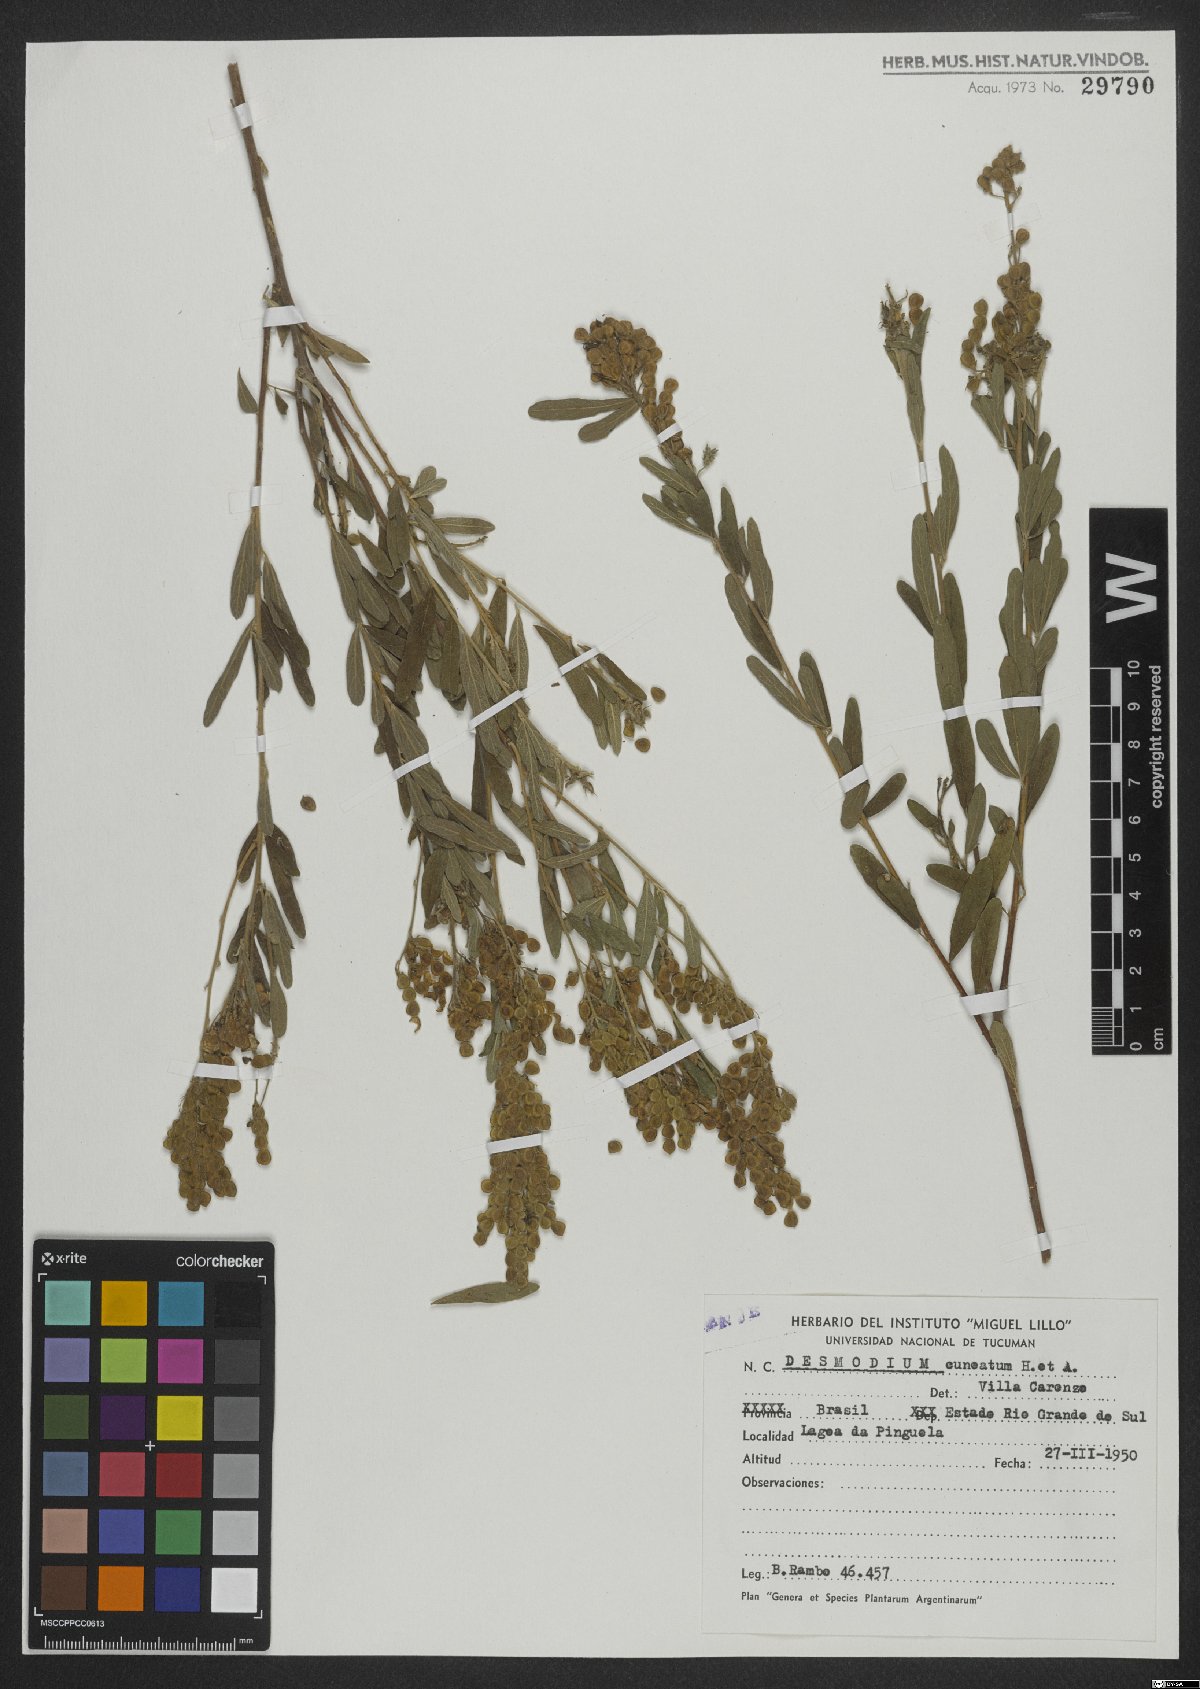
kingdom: Plantae
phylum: Tracheophyta
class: Magnoliopsida
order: Fabales
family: Fabaceae
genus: Desmodium
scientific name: Desmodium cuneatum
